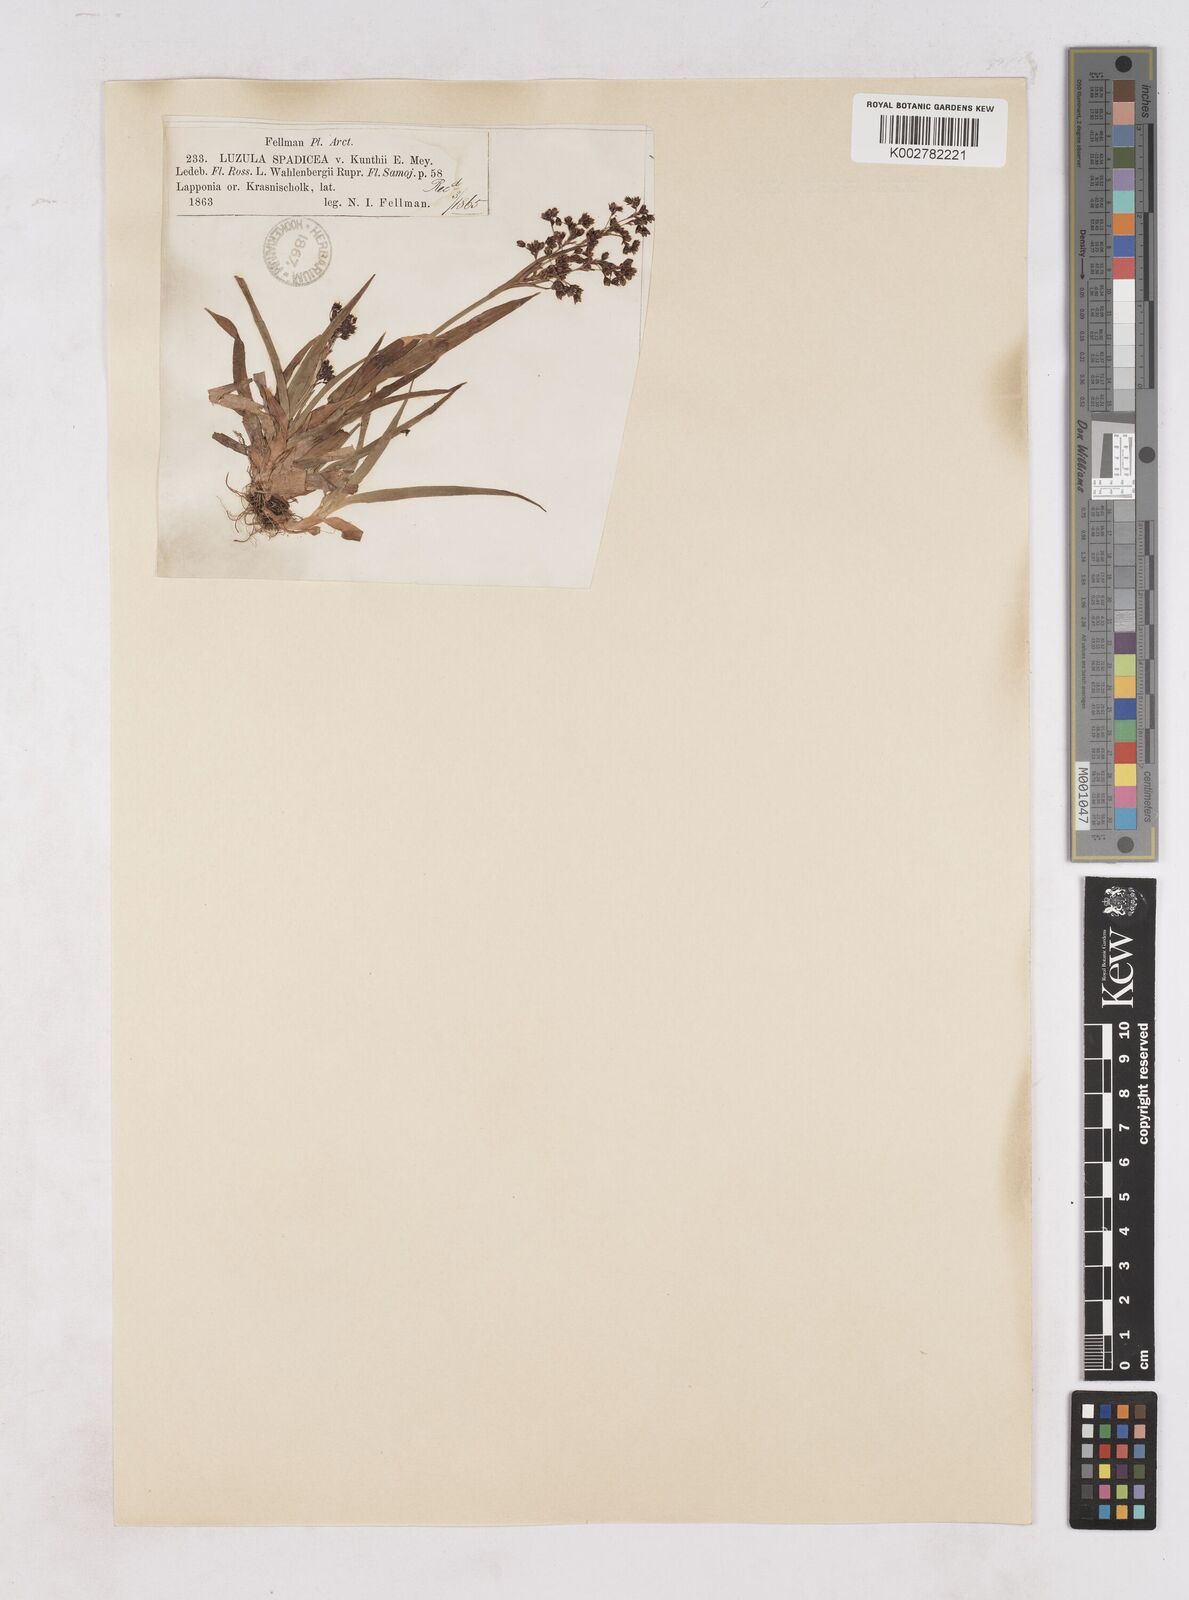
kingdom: Plantae
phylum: Tracheophyta
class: Liliopsida
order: Poales
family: Juncaceae
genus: Luzula
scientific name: Luzula alpinopilosa
